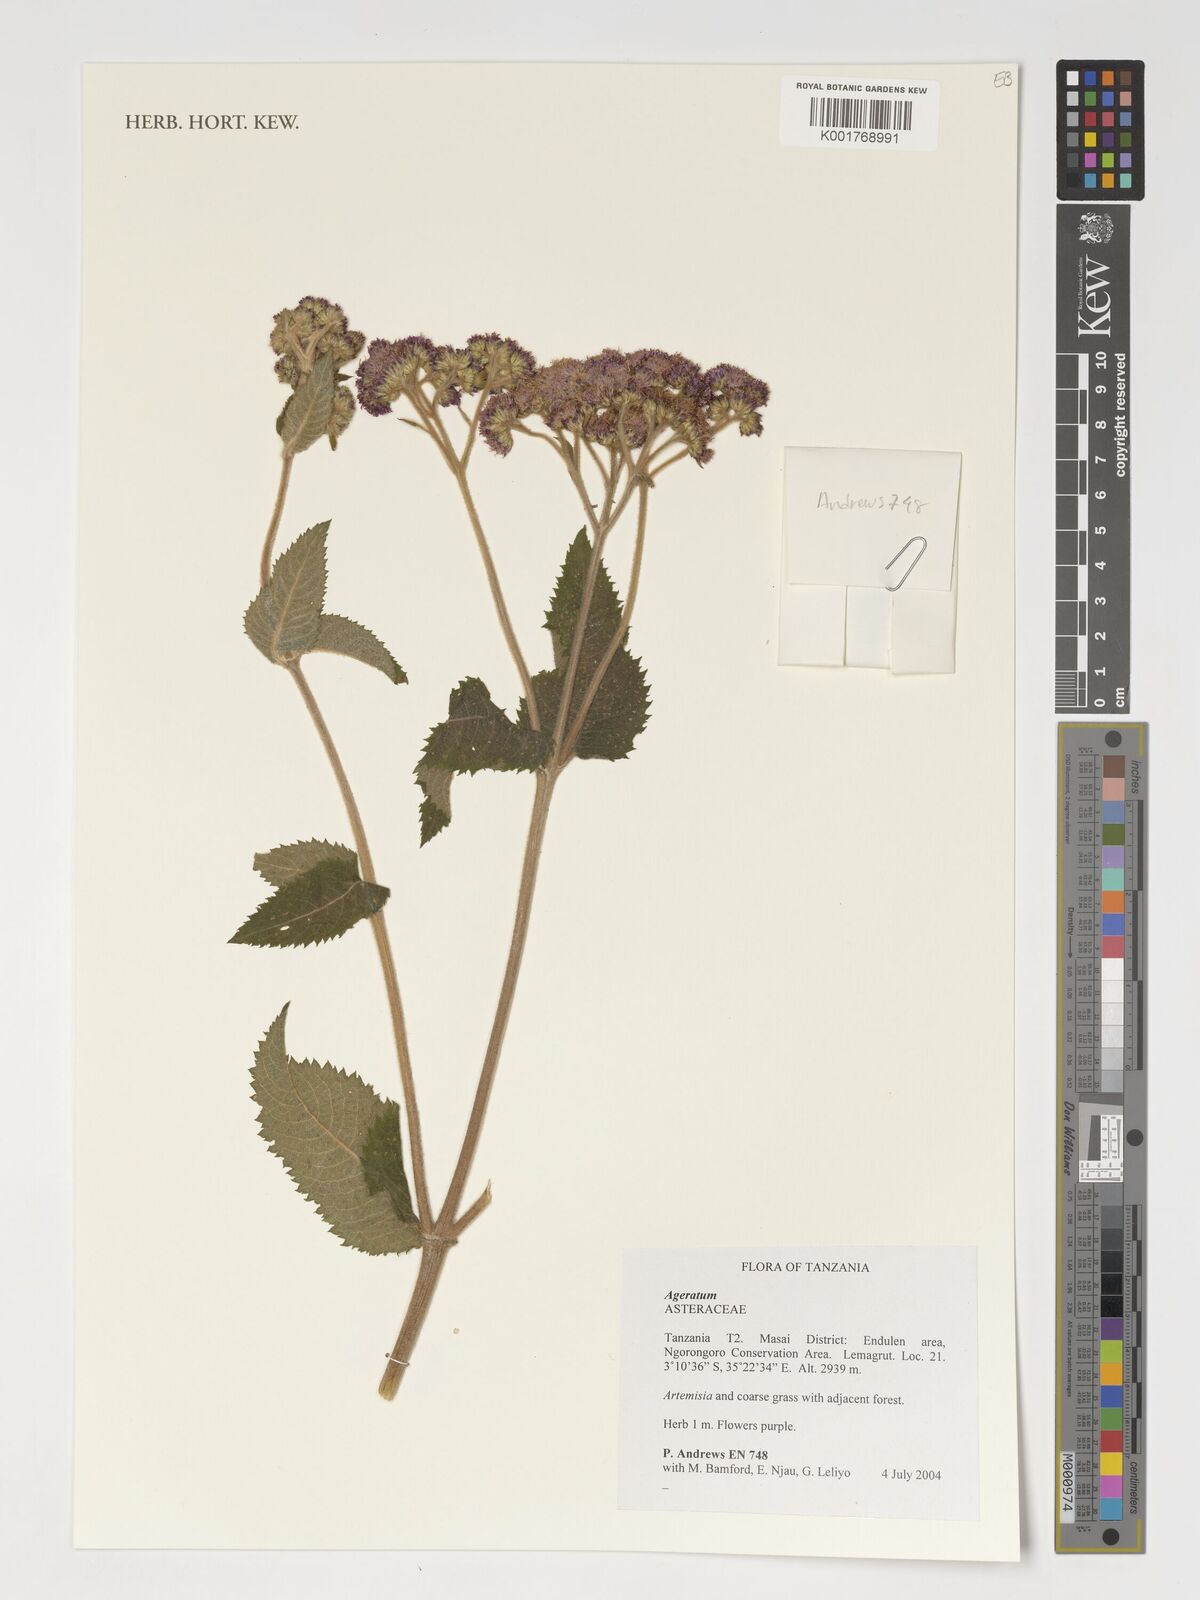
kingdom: Plantae
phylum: Tracheophyta
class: Magnoliopsida
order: Asterales
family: Asteraceae
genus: Ageratum
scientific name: Ageratum
